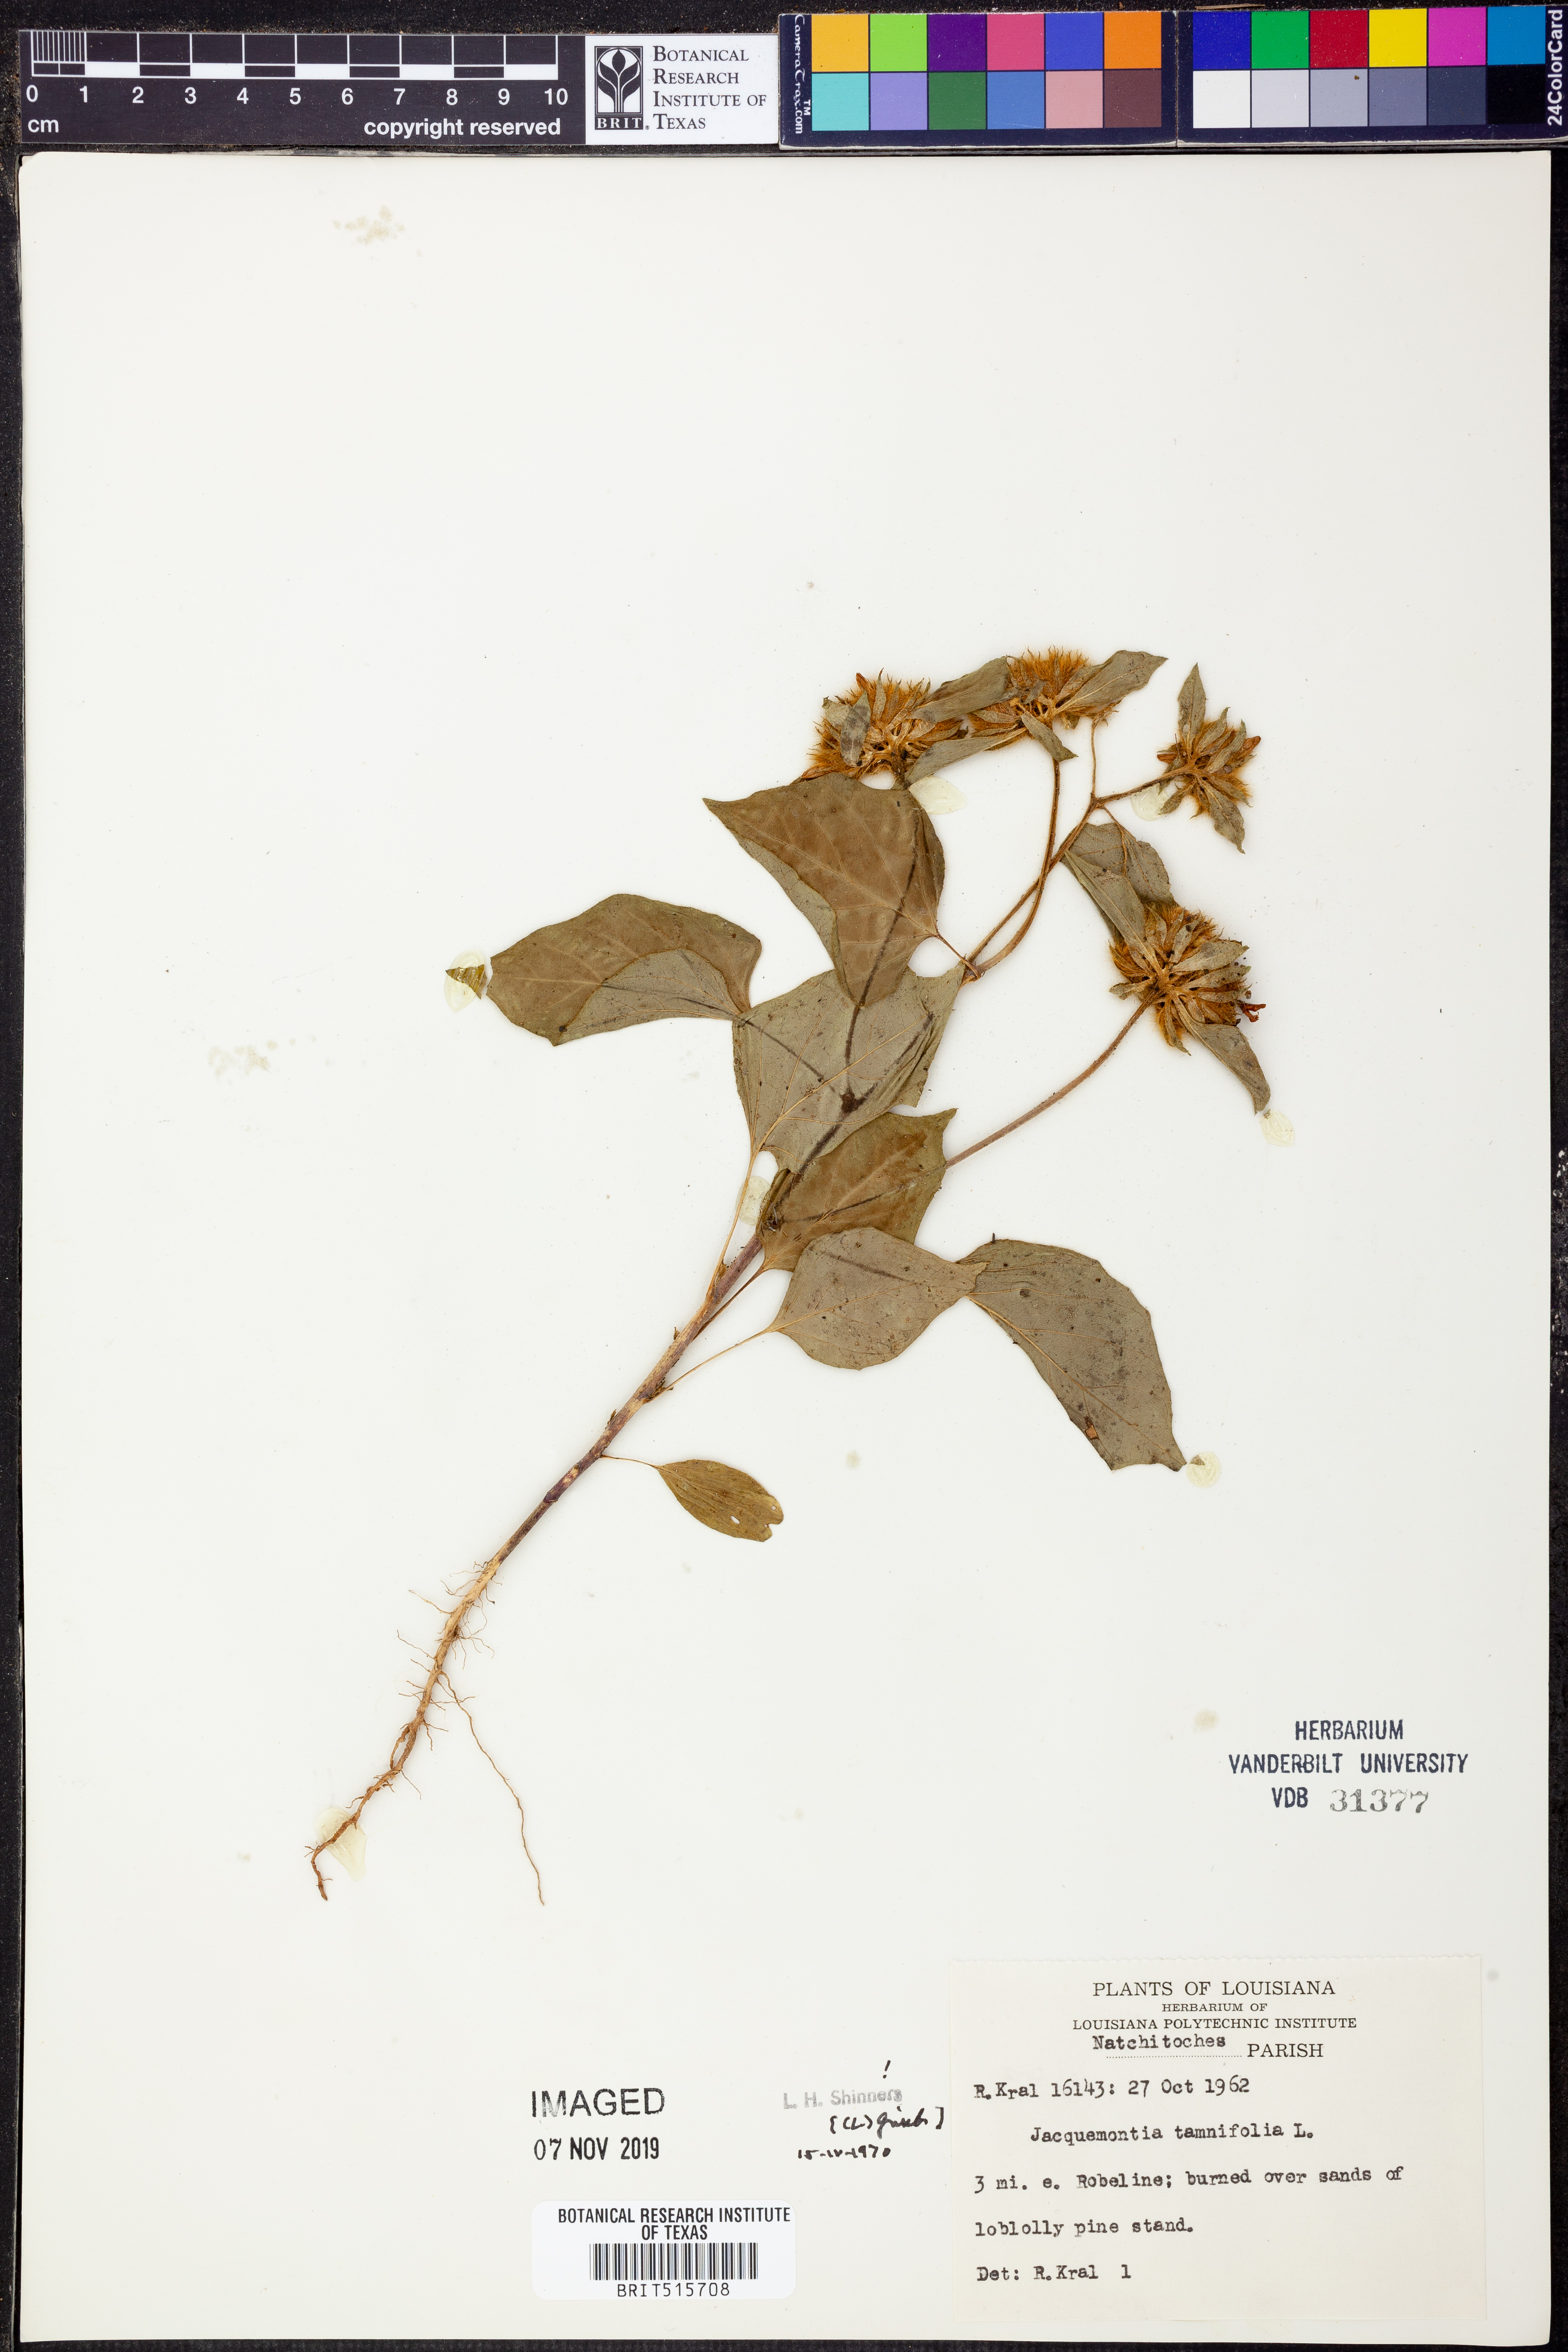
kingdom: Plantae
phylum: Tracheophyta
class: Magnoliopsida
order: Solanales
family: Convolvulaceae
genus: Jacquemontia
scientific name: Jacquemontia tamnifolia
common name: Hairy clustervine
